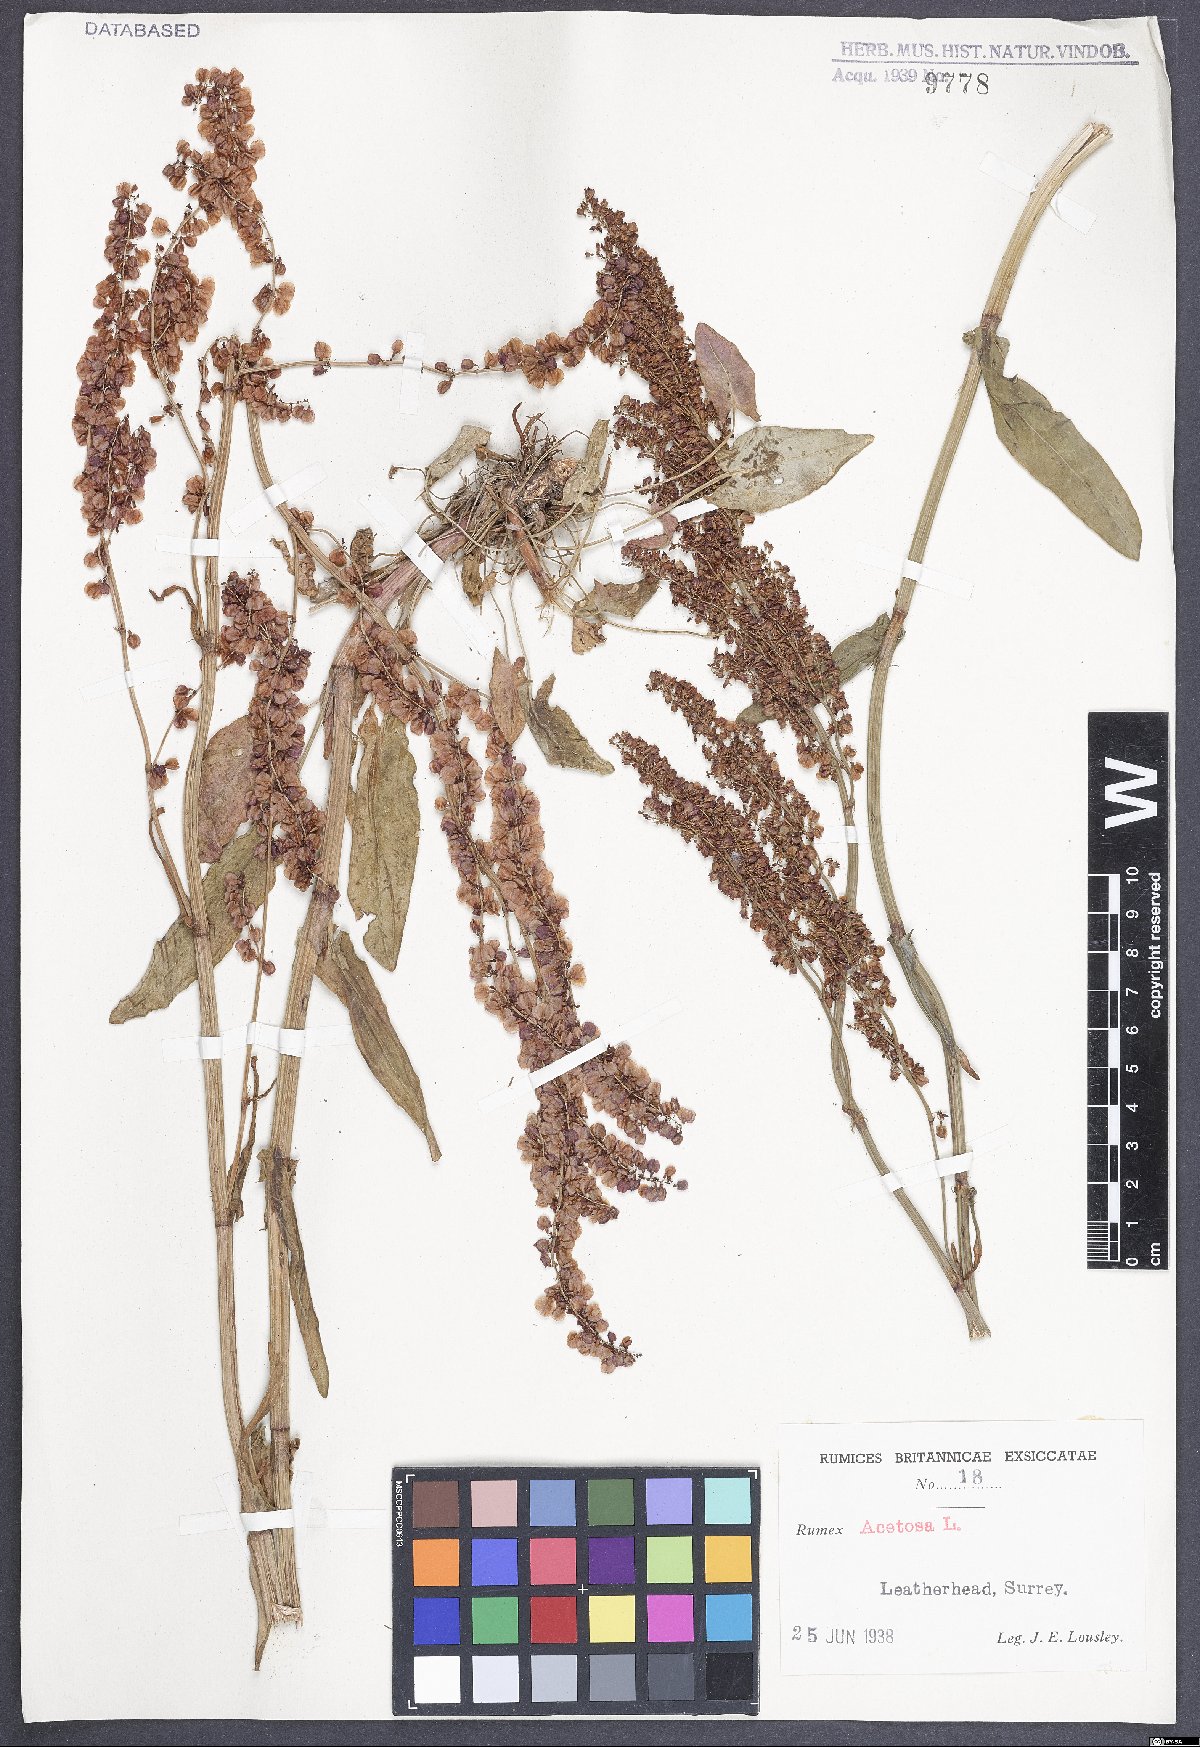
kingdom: Plantae
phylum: Tracheophyta
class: Magnoliopsida
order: Caryophyllales
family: Polygonaceae
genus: Rumex
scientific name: Rumex acetosa
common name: Garden sorrel
